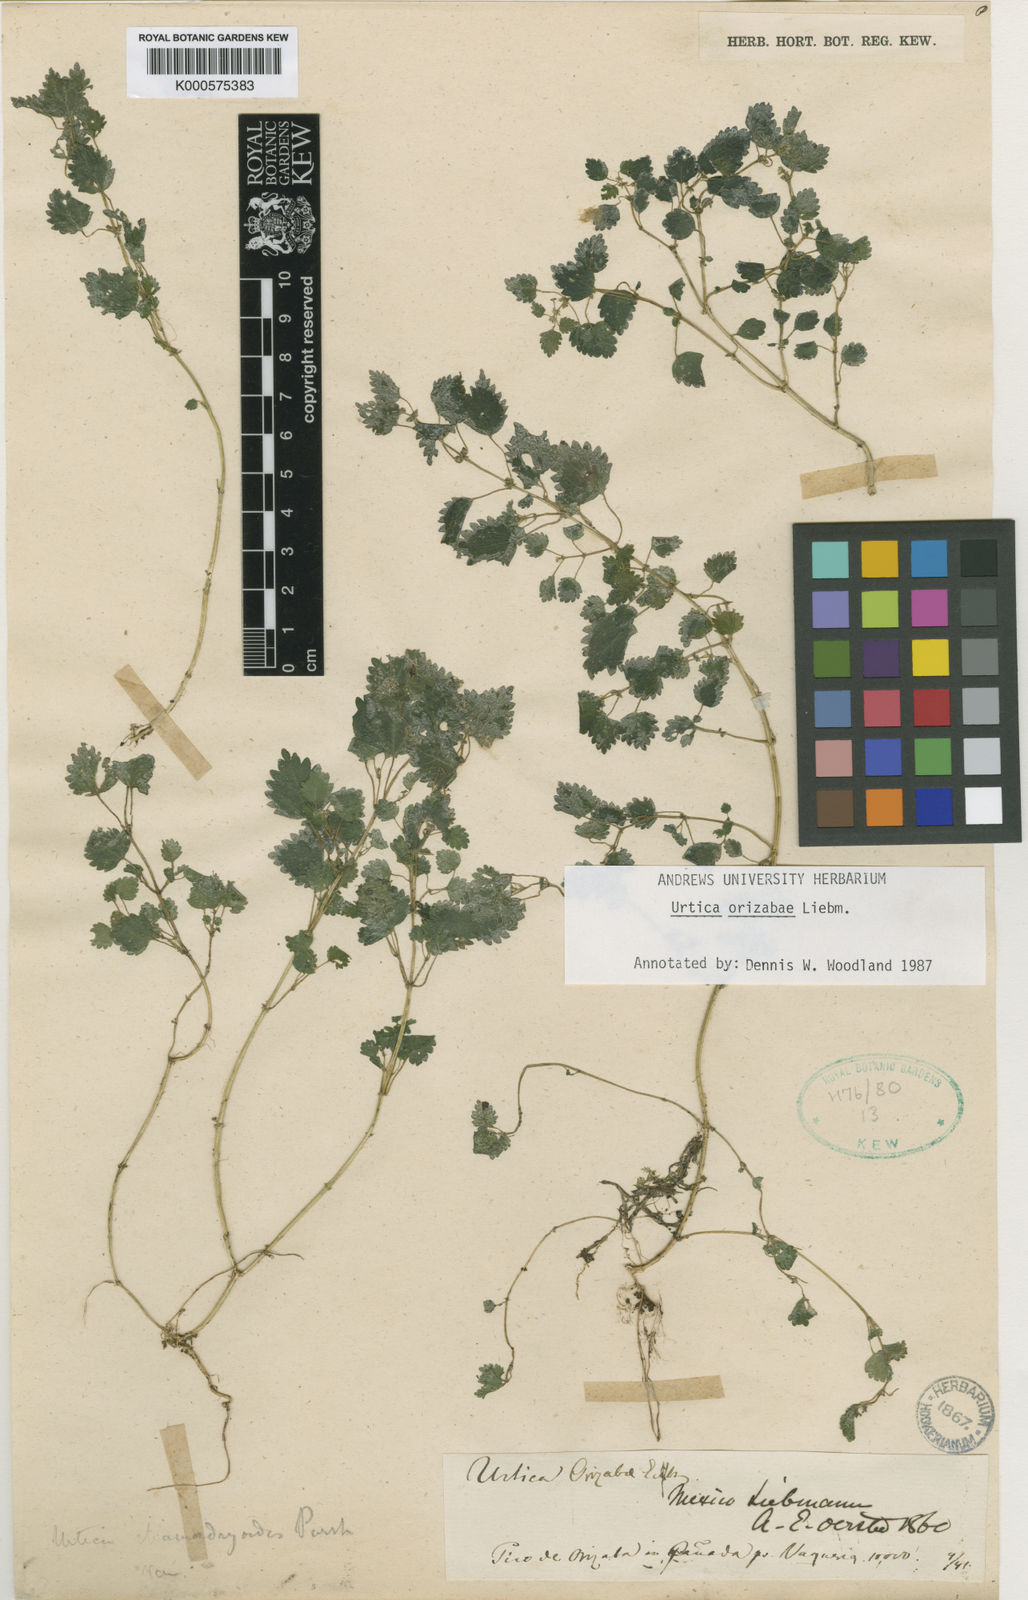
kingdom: Plantae
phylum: Tracheophyta
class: Magnoliopsida
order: Rosales
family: Urticaceae
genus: Urtica
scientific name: Urtica chamaedryoides
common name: Heart-leaf nettle
